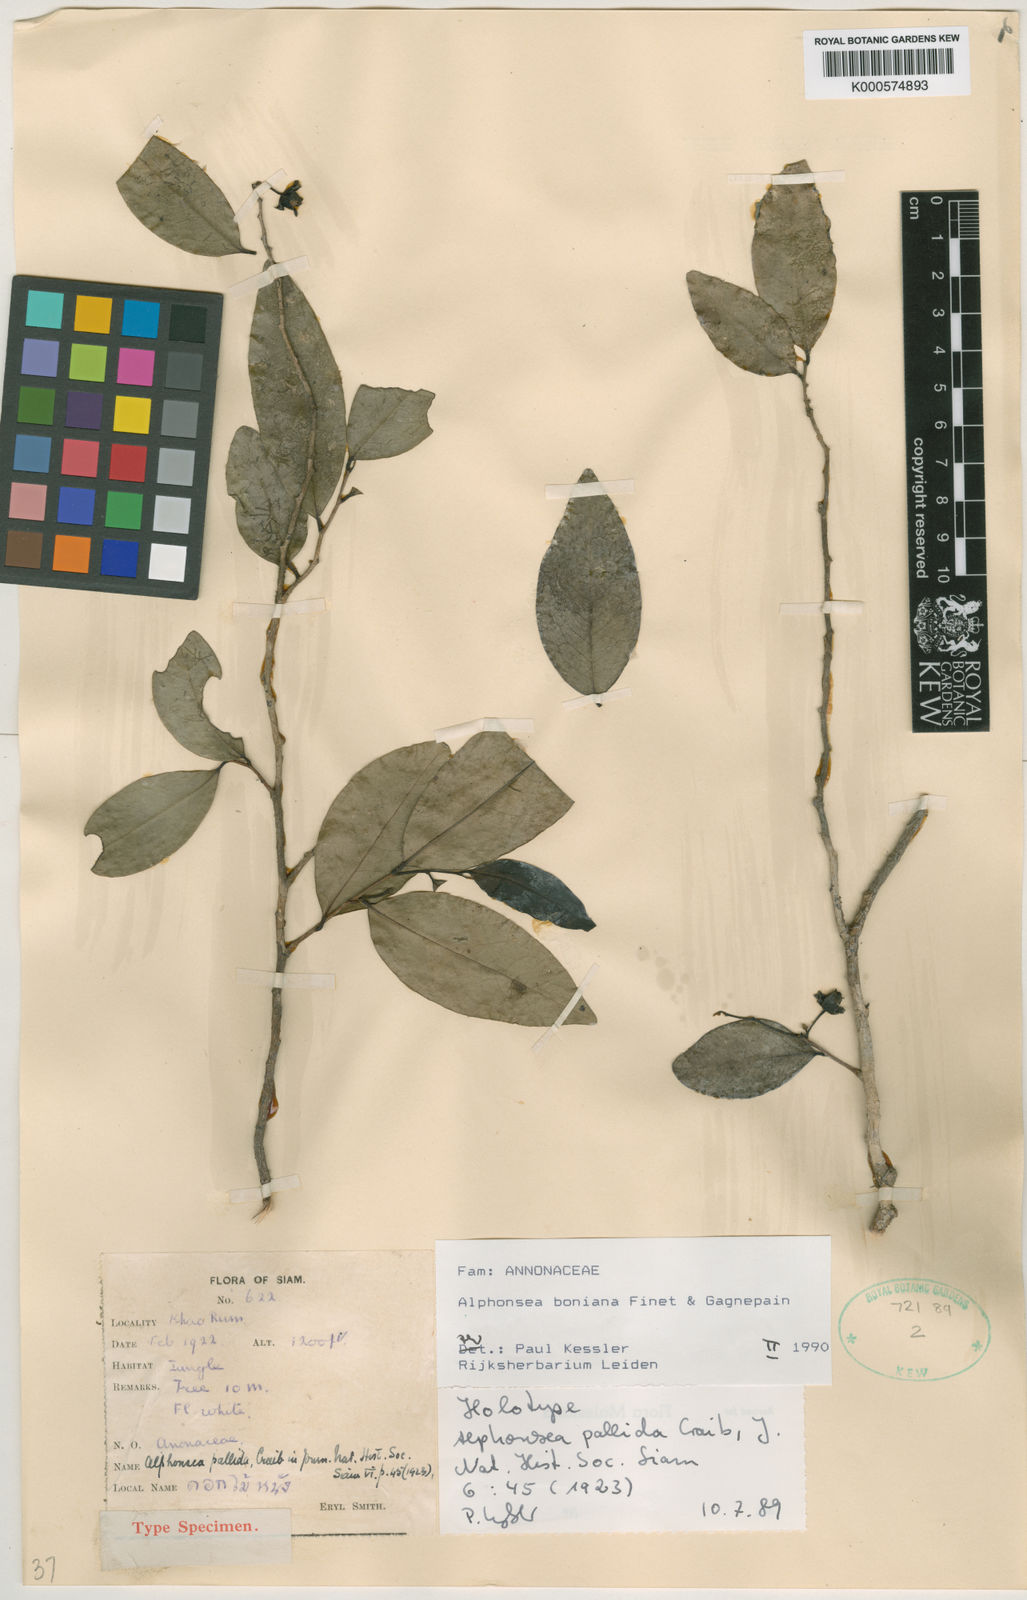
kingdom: Plantae
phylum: Tracheophyta
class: Magnoliopsida
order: Magnoliales
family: Annonaceae
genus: Alphonsea
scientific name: Alphonsea boniana
